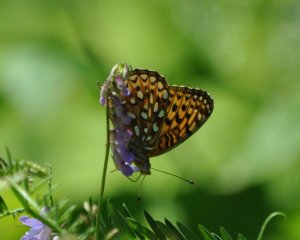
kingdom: Animalia
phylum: Arthropoda
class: Insecta
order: Lepidoptera
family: Nymphalidae
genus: Speyeria
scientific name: Speyeria atlantis
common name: Atlantis Fritillary
